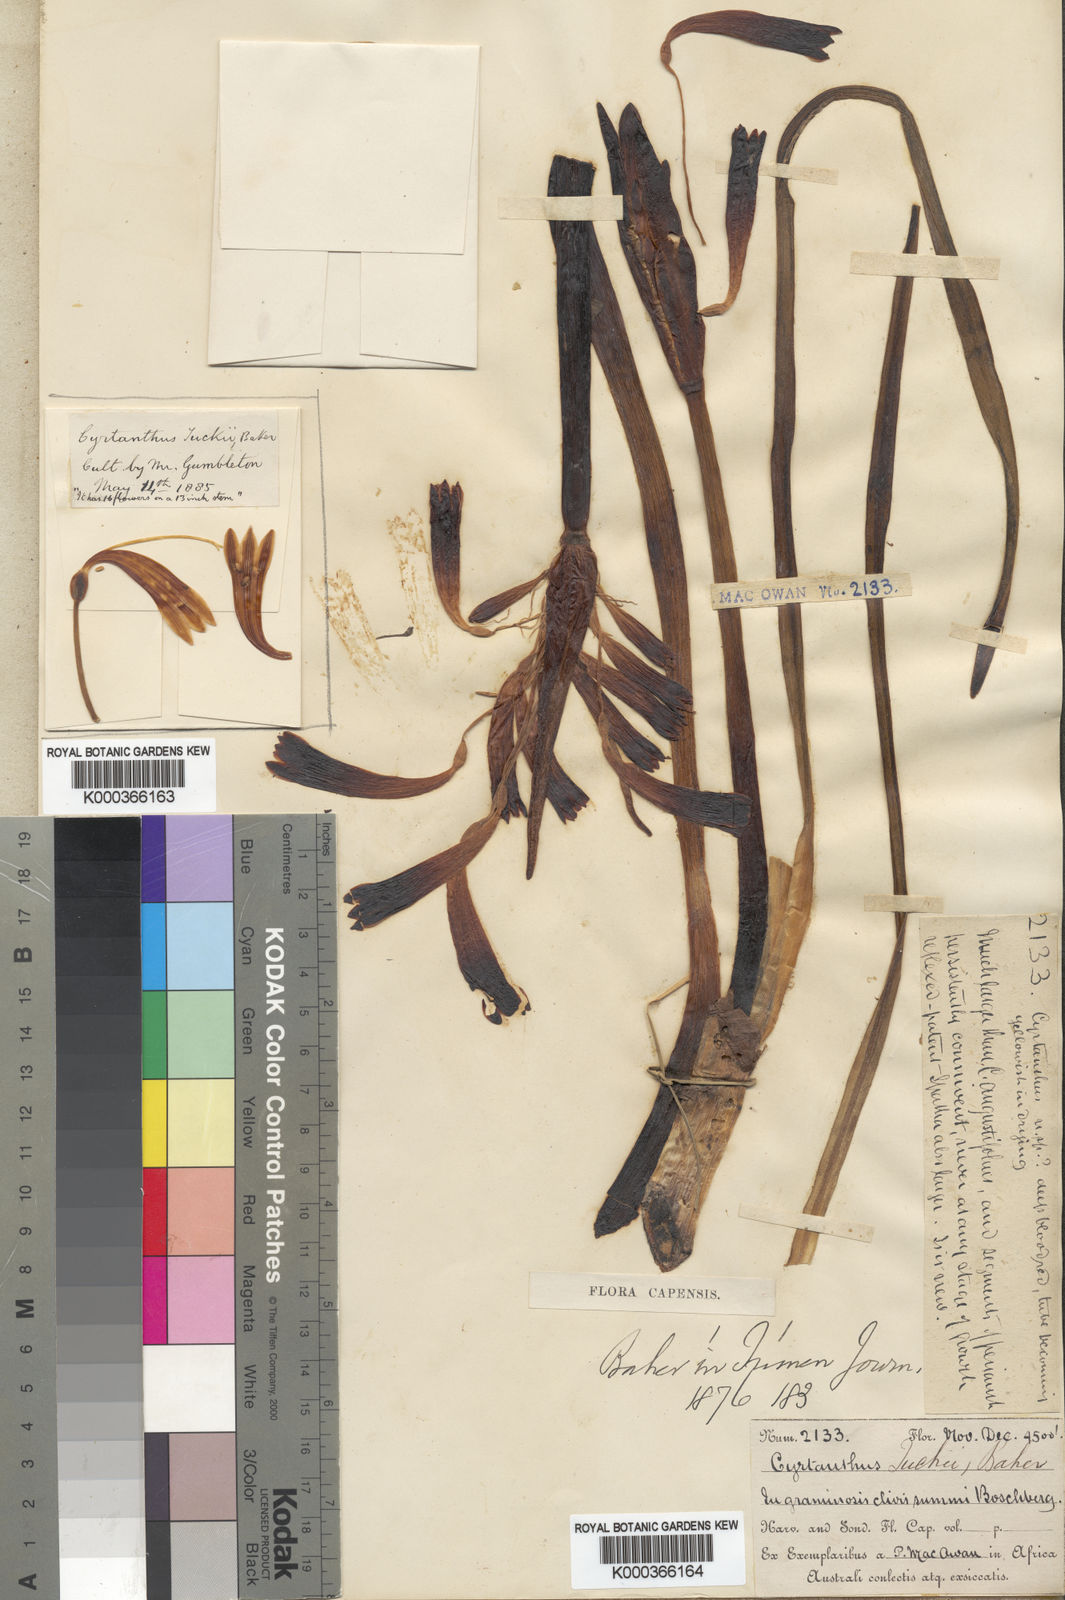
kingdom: Plantae
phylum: Tracheophyta
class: Liliopsida
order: Asparagales
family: Amaryllidaceae
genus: Cyrtanthus
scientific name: Cyrtanthus tuckii
